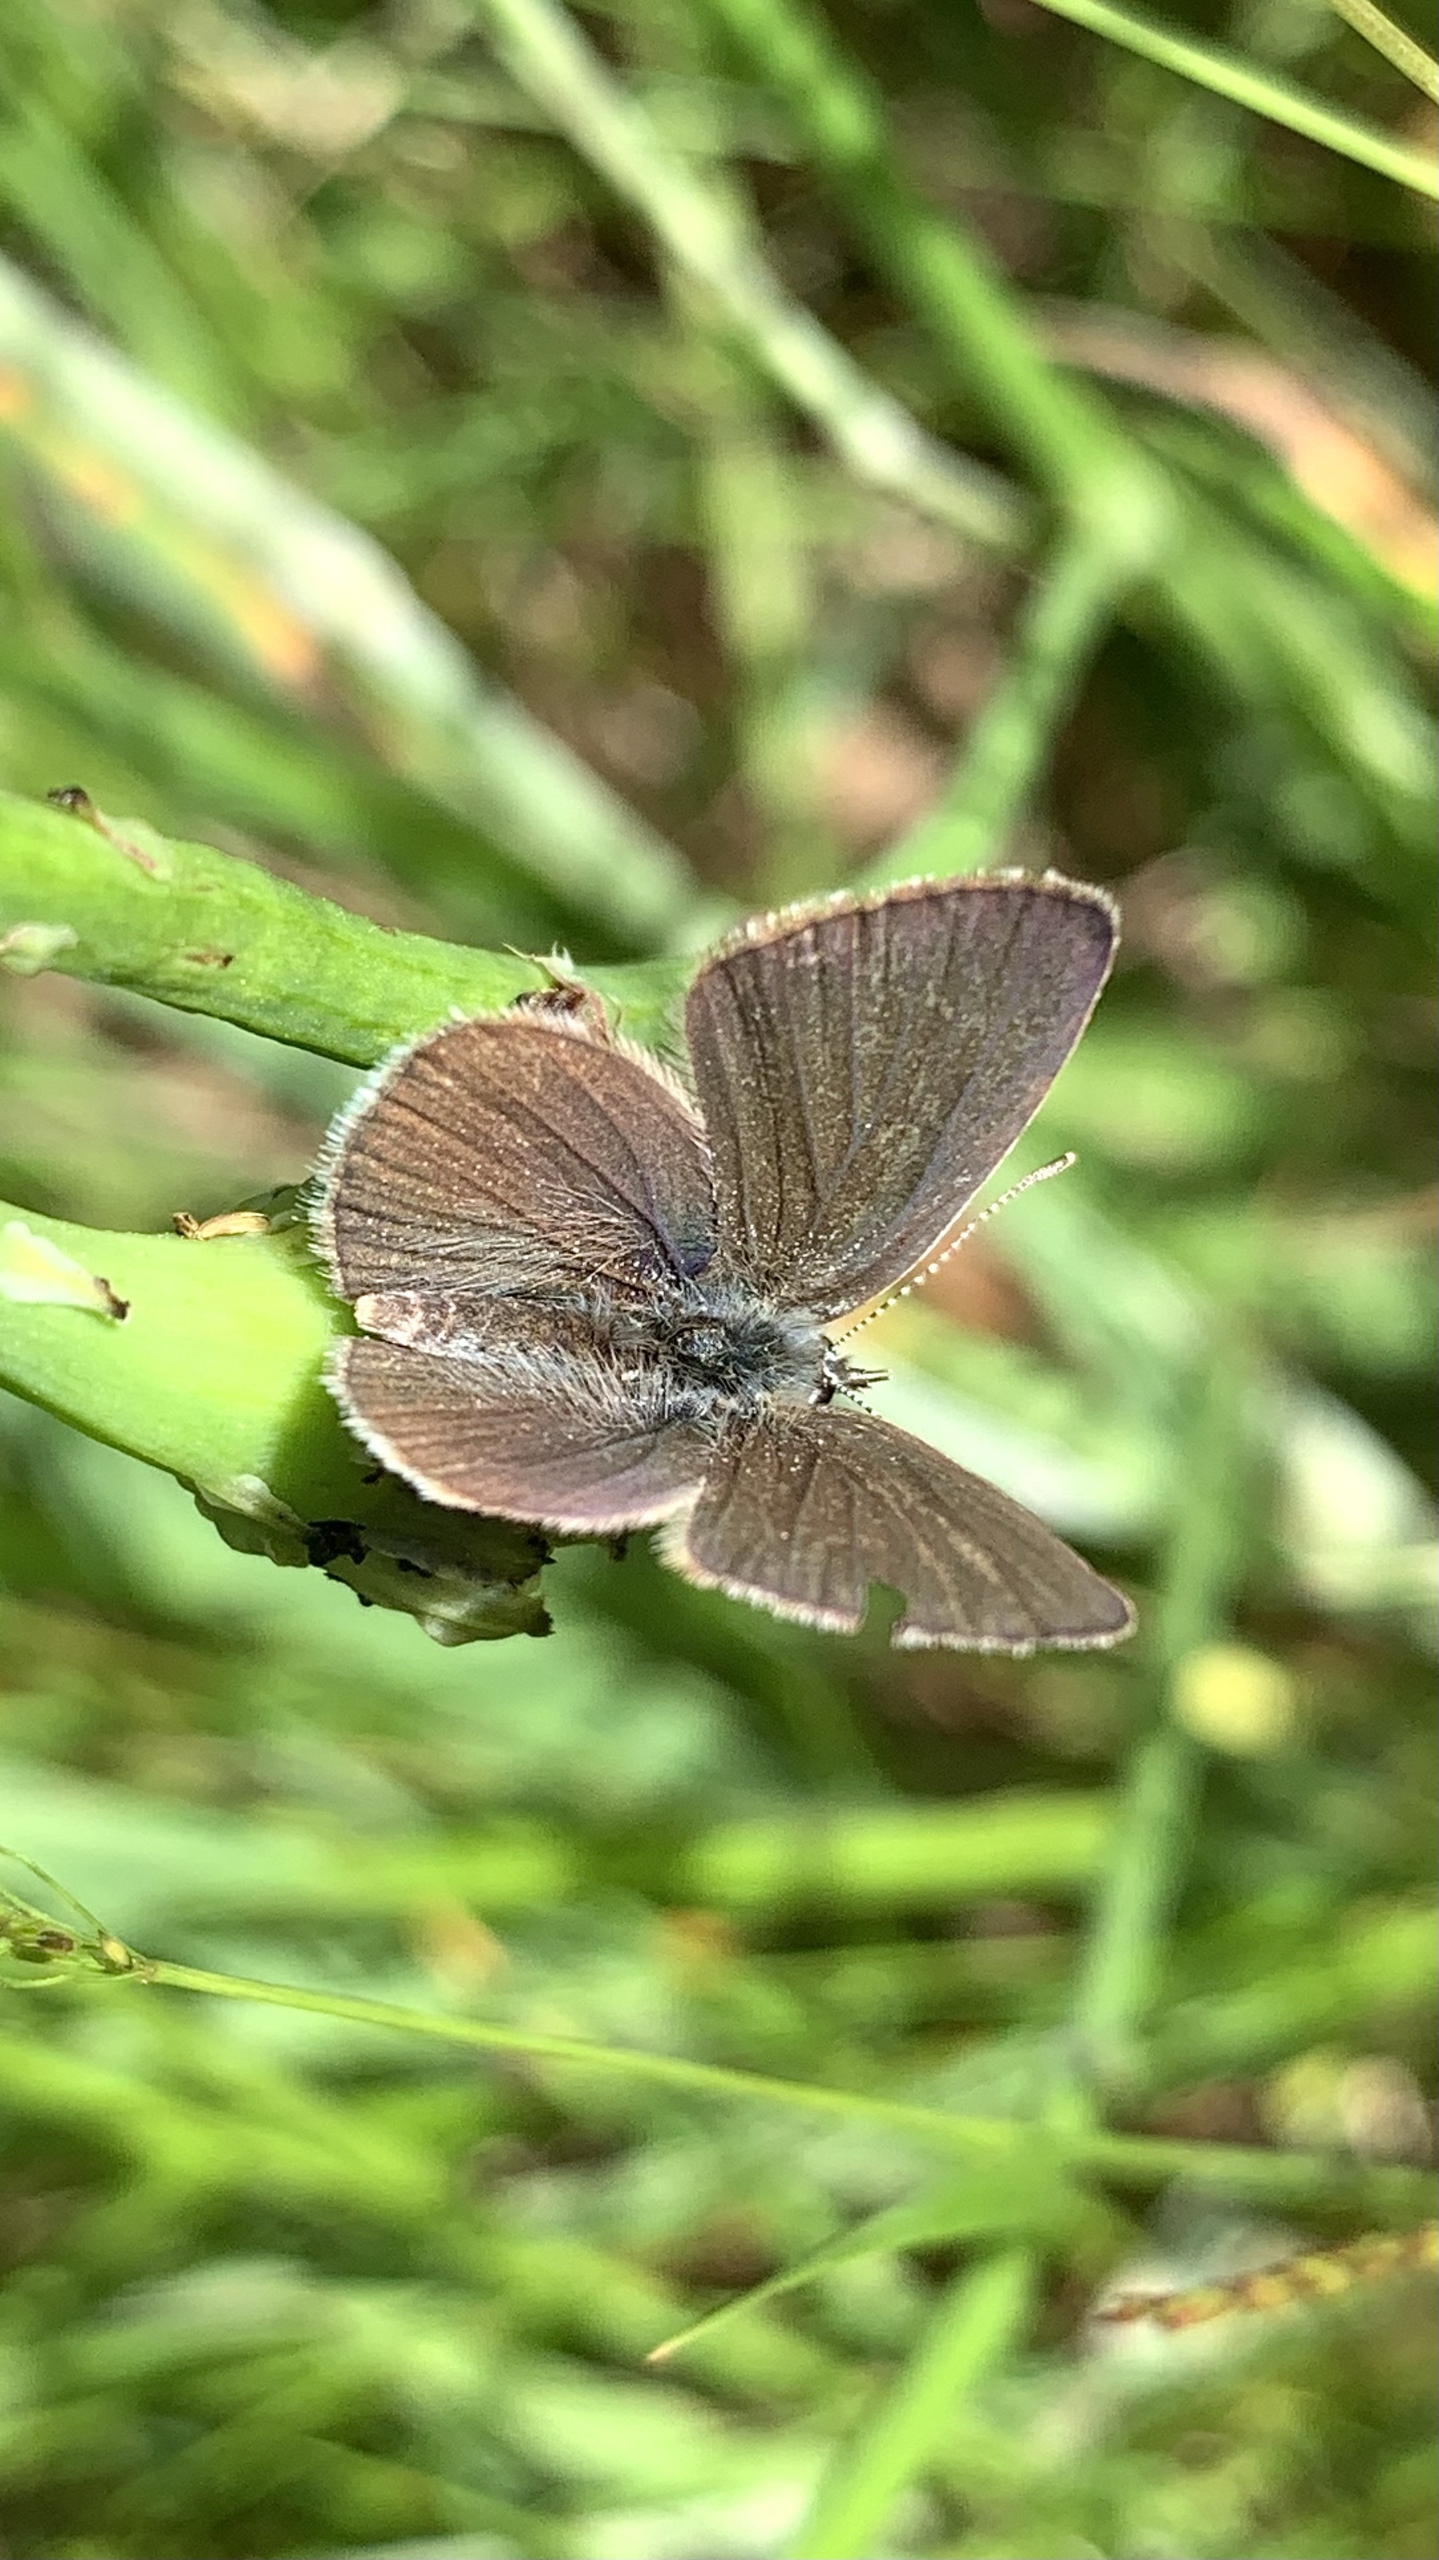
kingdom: Animalia
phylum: Arthropoda
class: Insecta
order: Lepidoptera
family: Lycaenidae
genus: Cupido
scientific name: Cupido minimus
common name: Dværgblåfugl
